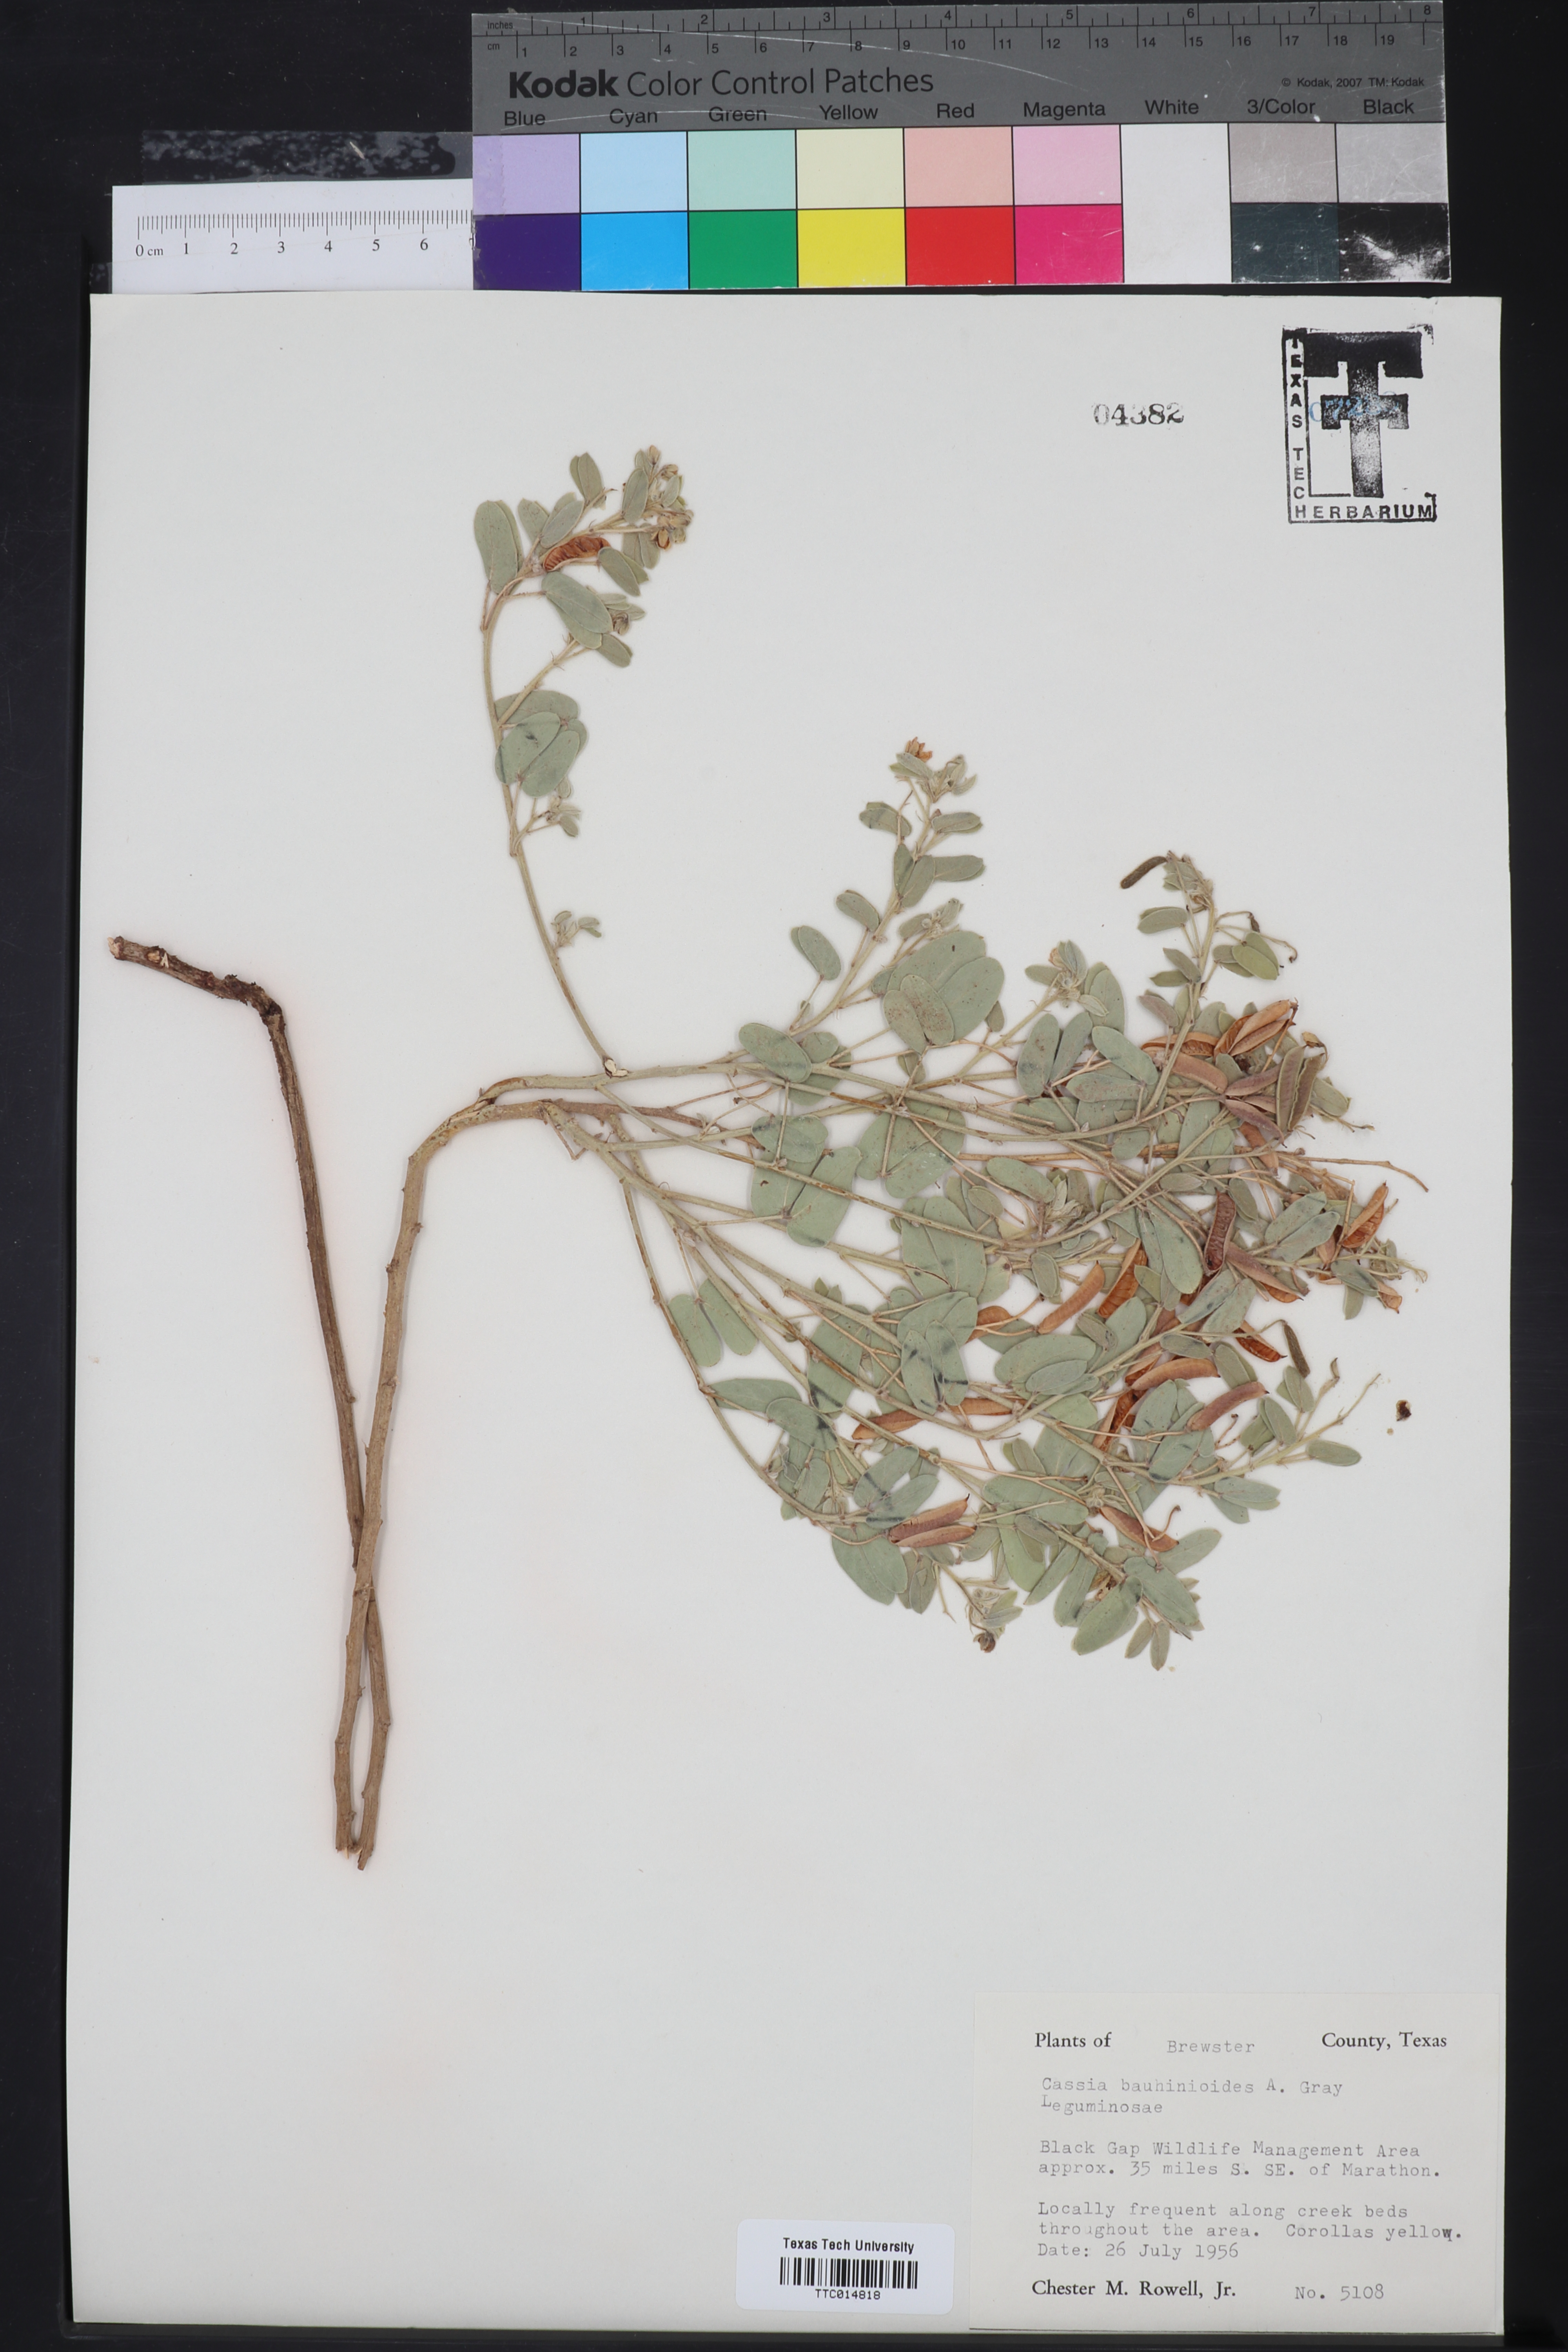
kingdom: Plantae
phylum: Tracheophyta
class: Magnoliopsida
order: Fabales
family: Fabaceae
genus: Senna
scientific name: Senna bauhinioides
